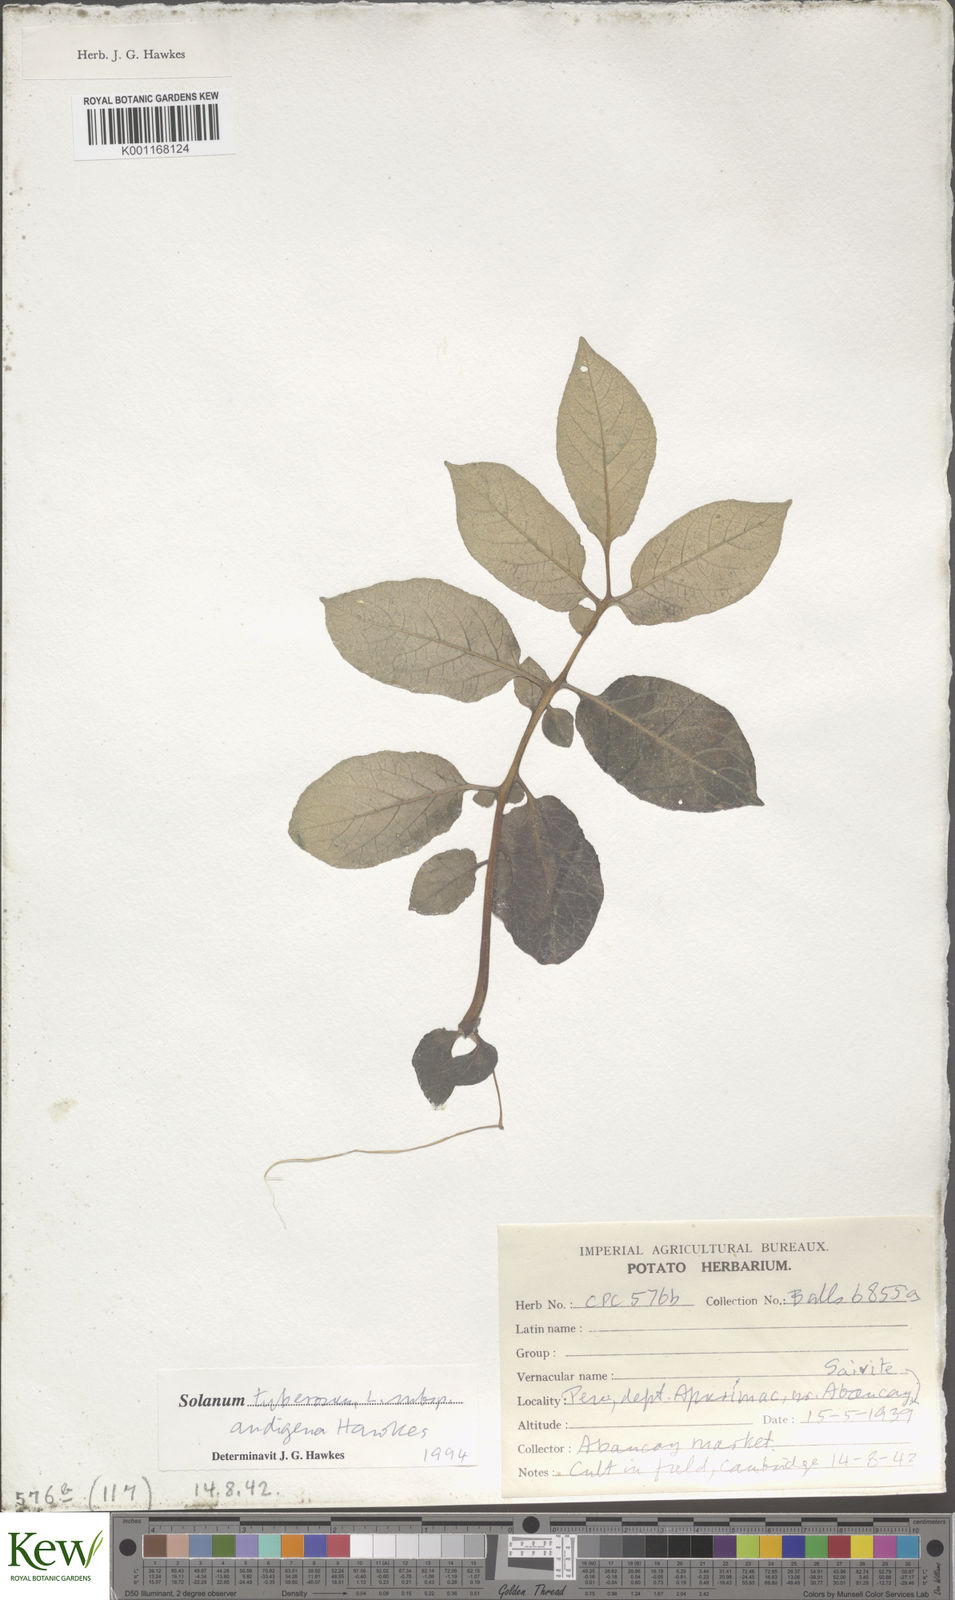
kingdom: Plantae
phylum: Tracheophyta
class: Magnoliopsida
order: Solanales
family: Solanaceae
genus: Solanum
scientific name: Solanum tuberosum
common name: Potato
